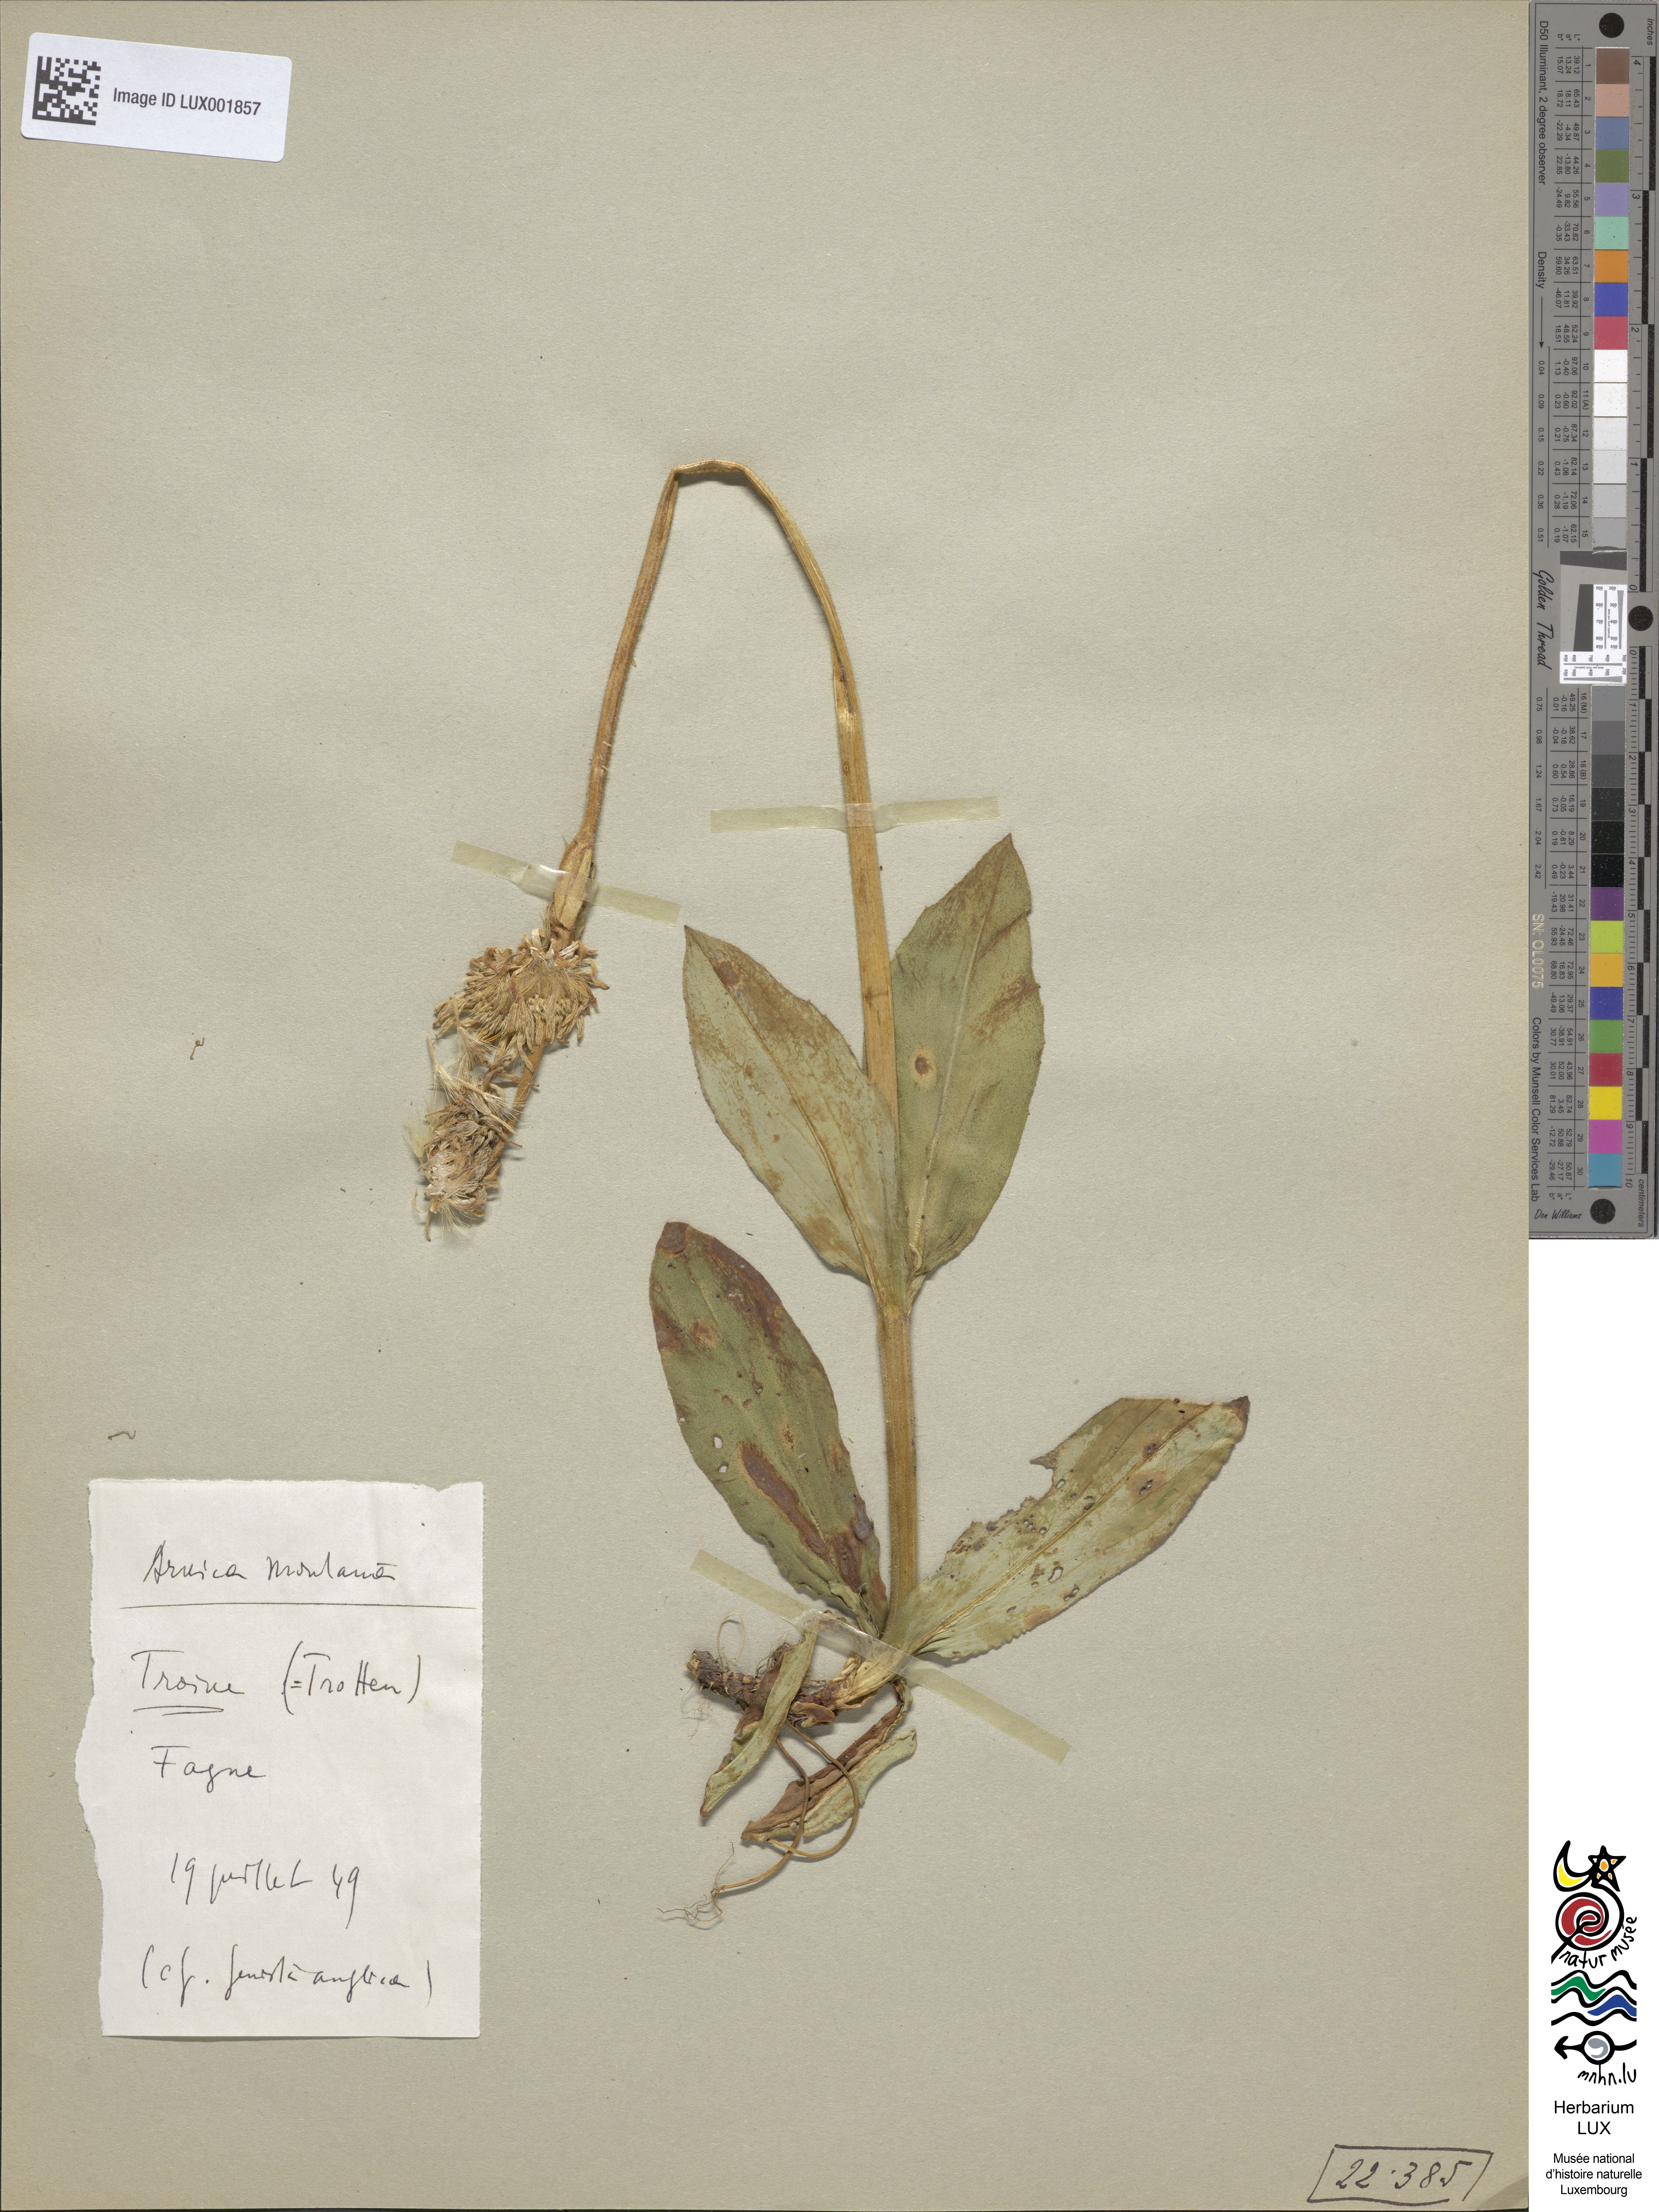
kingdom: Plantae
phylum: Tracheophyta
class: Magnoliopsida
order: Asterales
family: Asteraceae
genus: Arnica
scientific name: Arnica montana
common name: Leopard's bane
